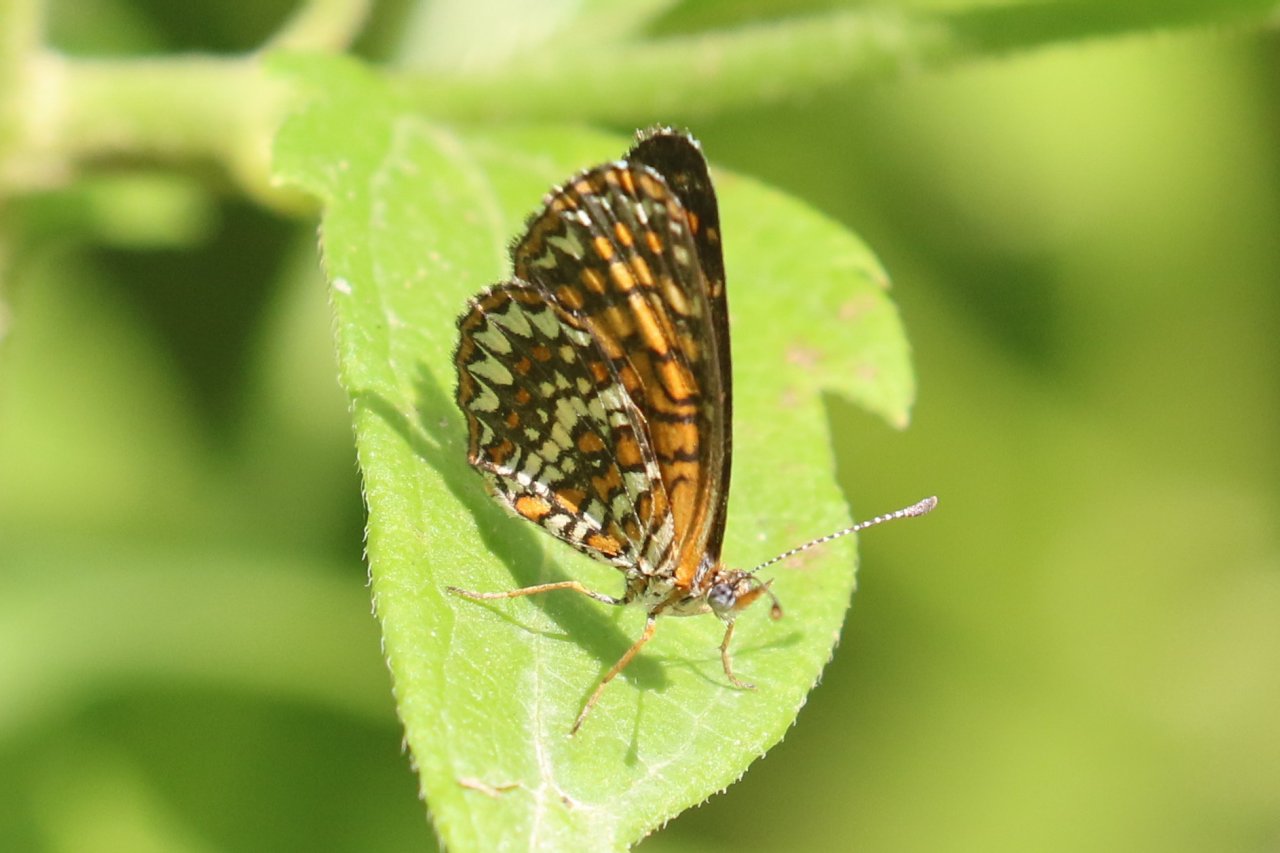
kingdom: Animalia
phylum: Arthropoda
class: Insecta
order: Lepidoptera
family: Nymphalidae
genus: Texola
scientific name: Texola elada
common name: Elada Checkerspot
